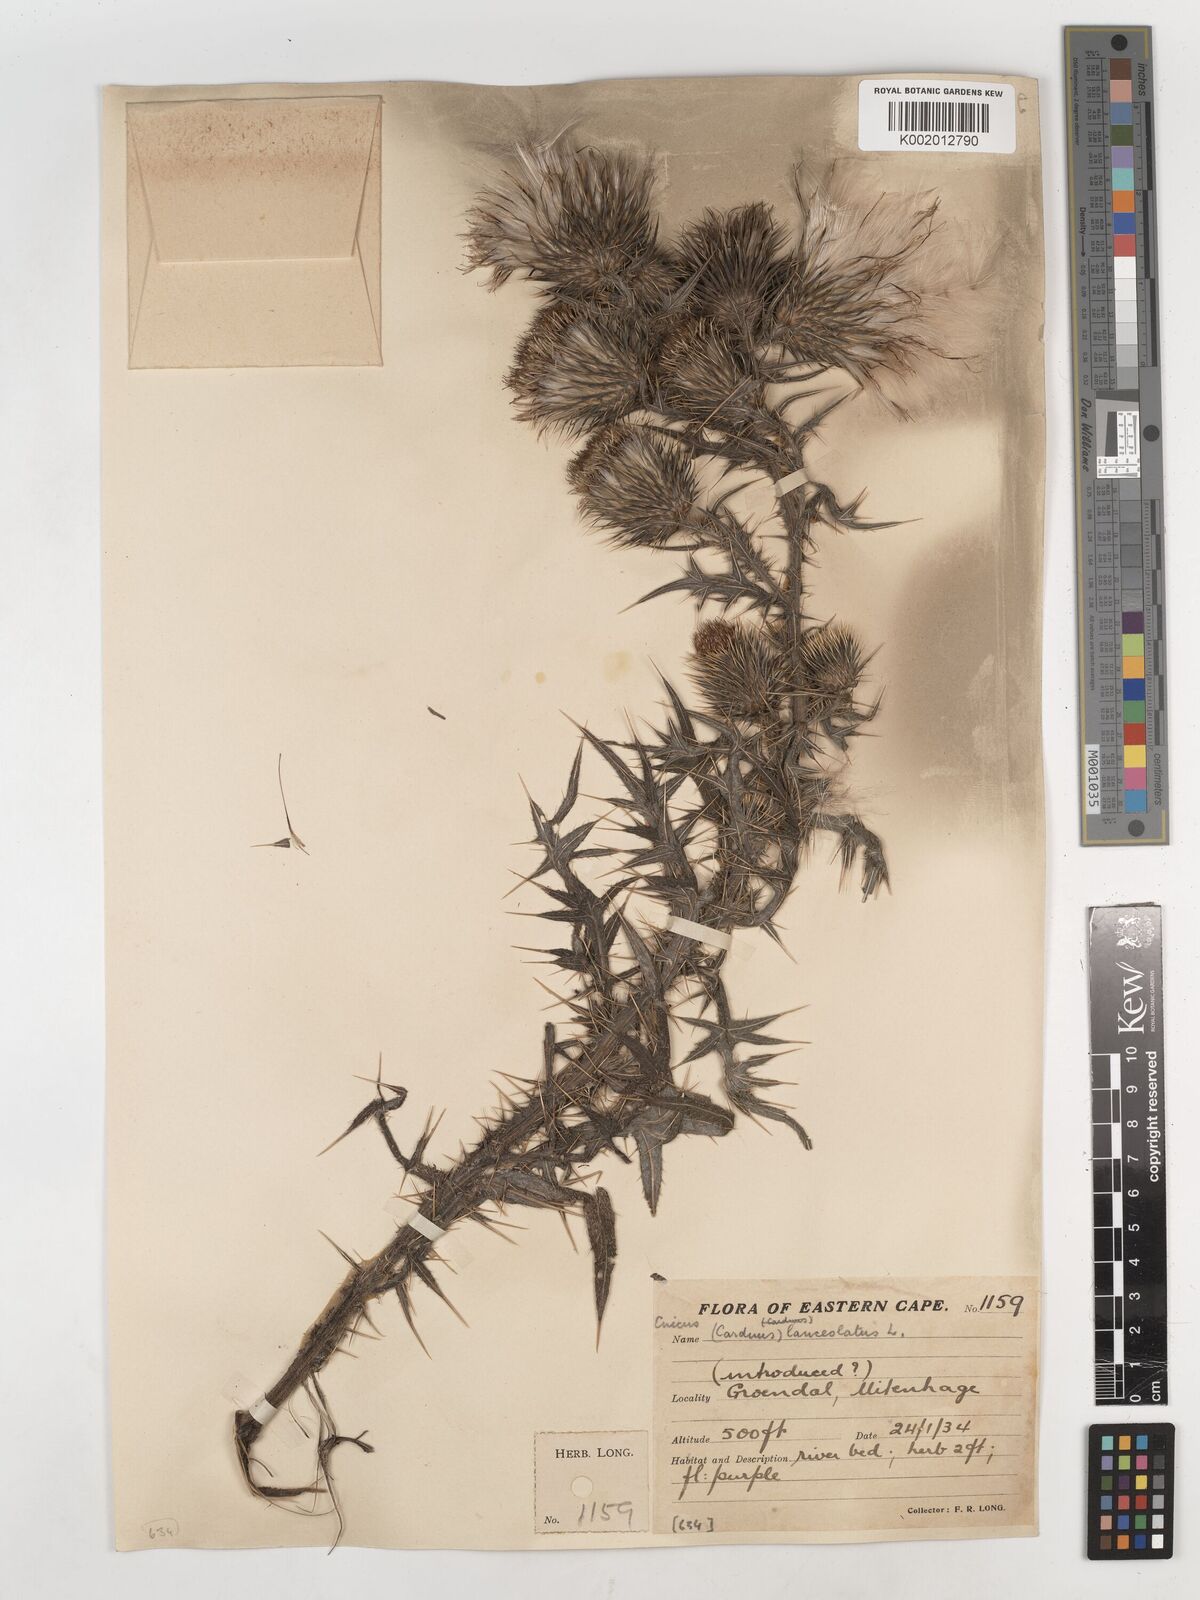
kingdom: Plantae
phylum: Tracheophyta
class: Magnoliopsida
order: Asterales
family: Asteraceae
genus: Cirsium
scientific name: Cirsium vulgare
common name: Bull thistle
